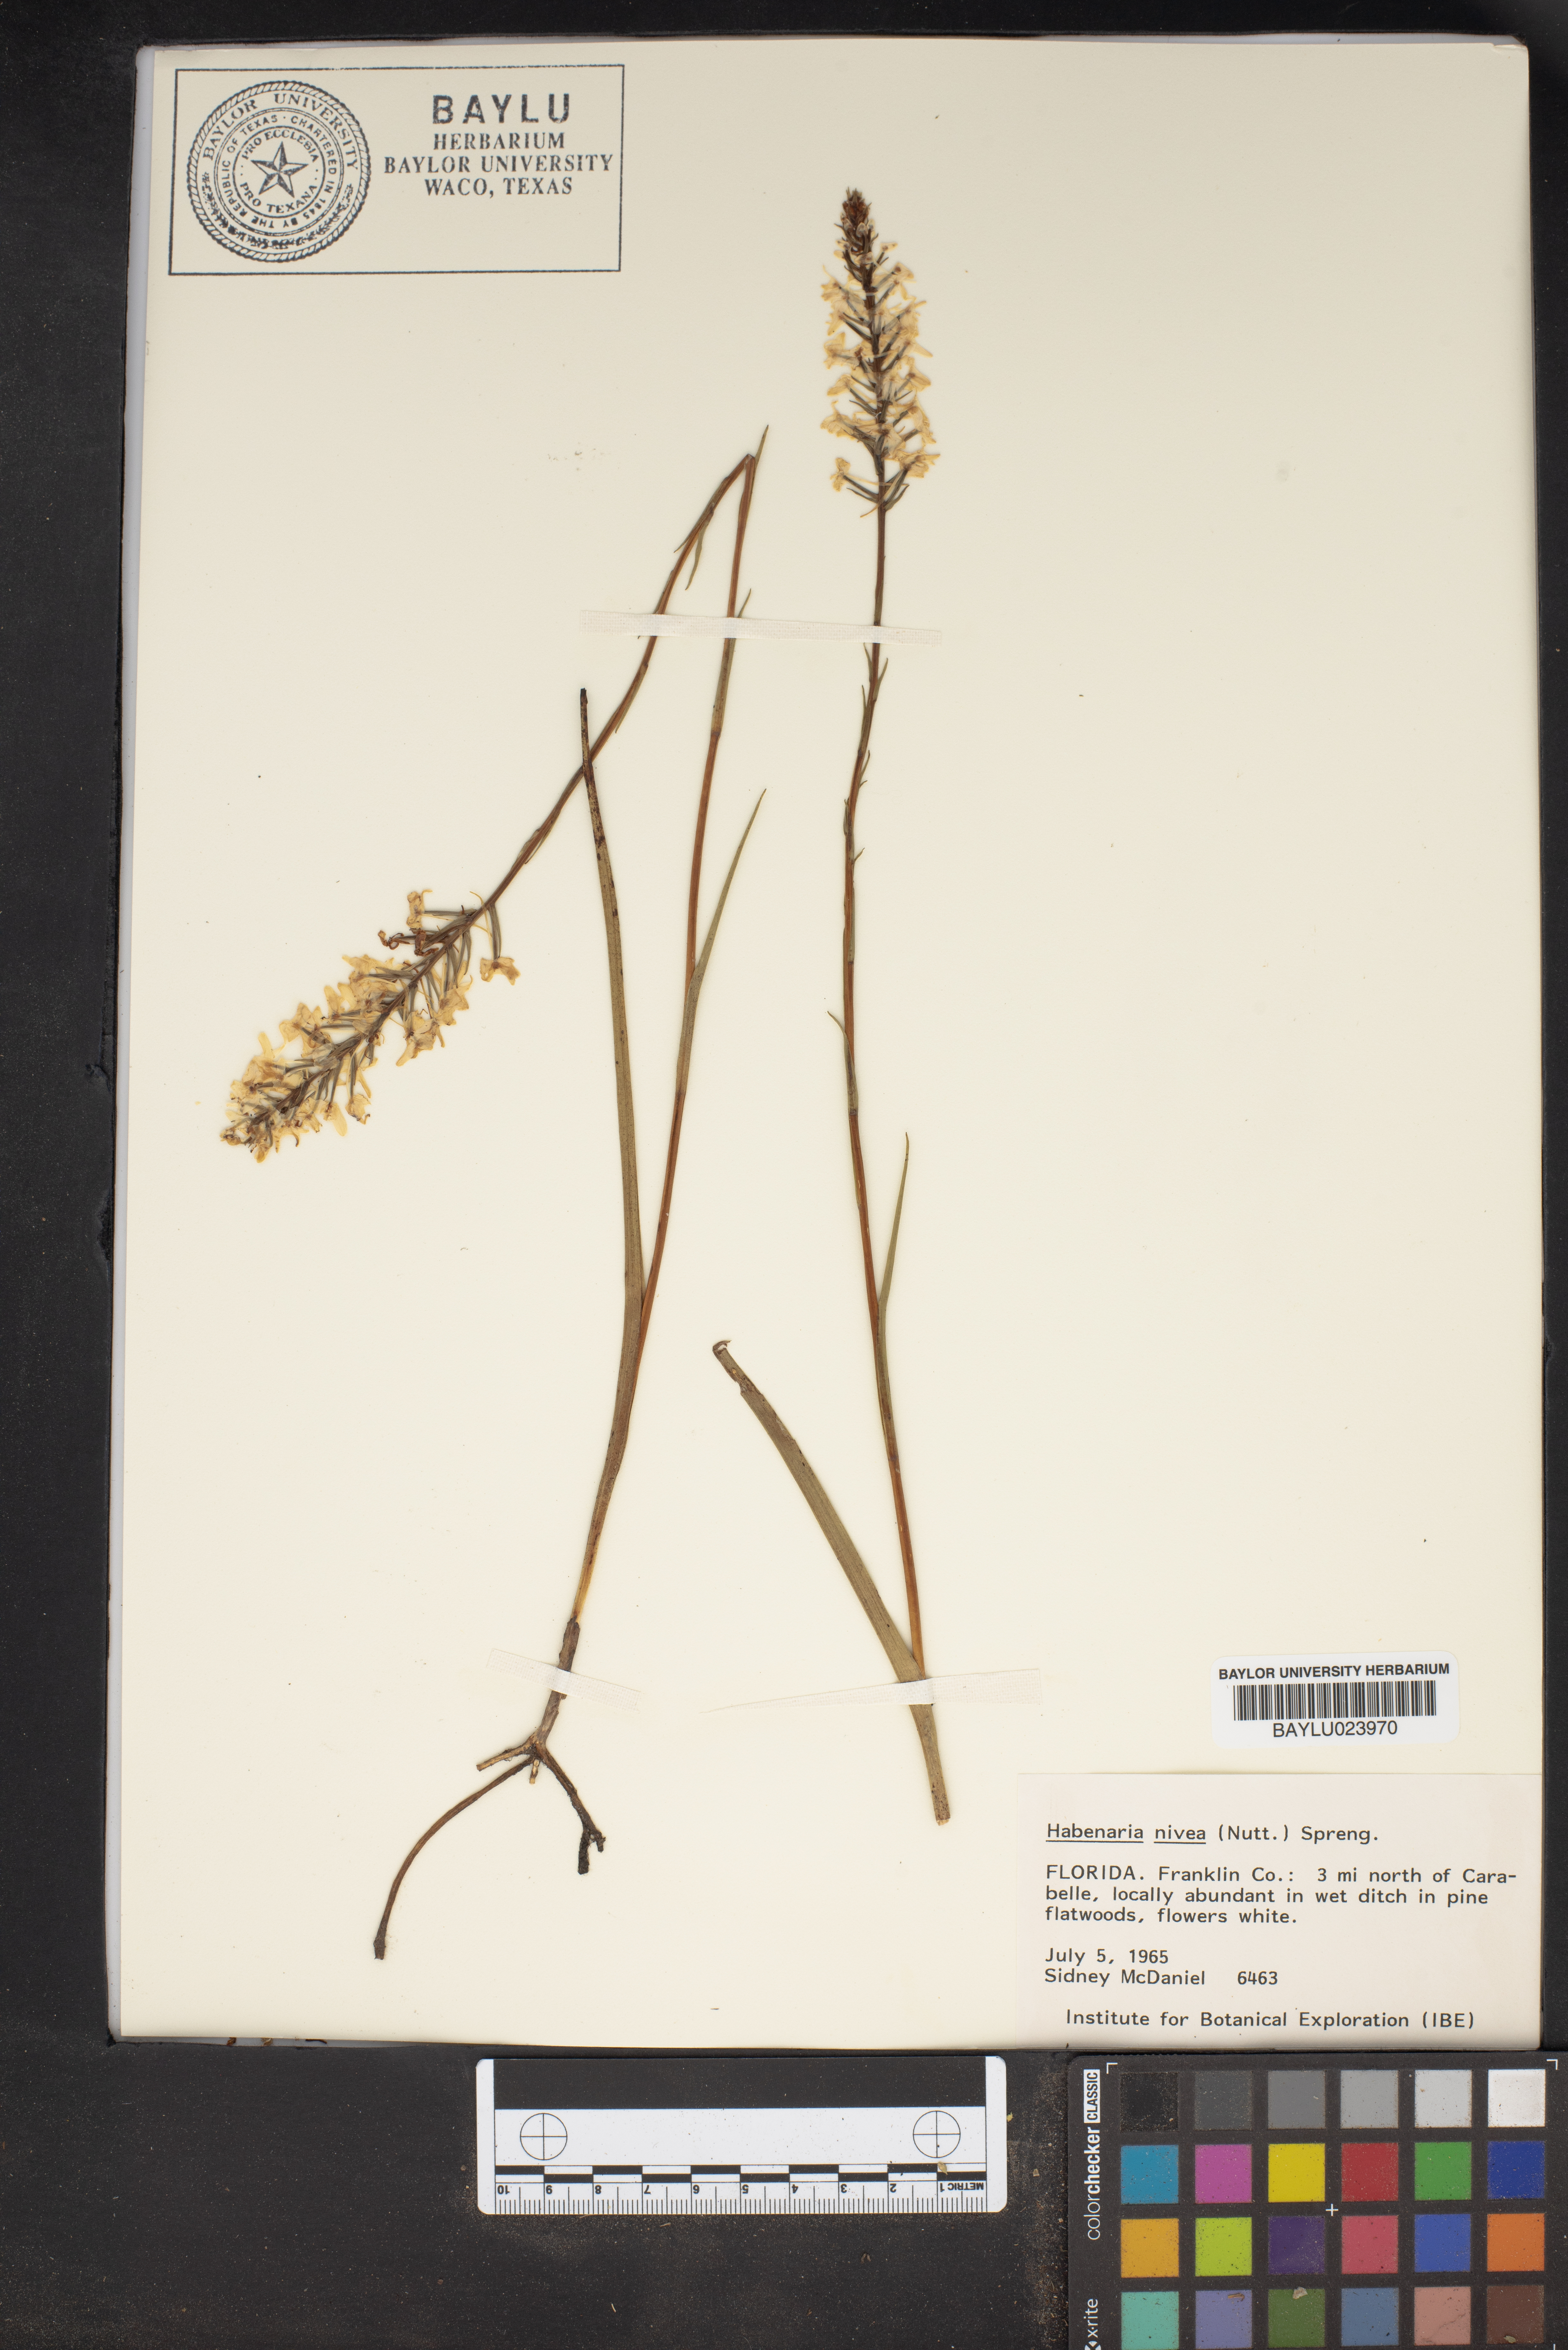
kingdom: Plantae
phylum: Tracheophyta
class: Liliopsida
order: Asparagales
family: Orchidaceae
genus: Platanthera
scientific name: Platanthera nivea
